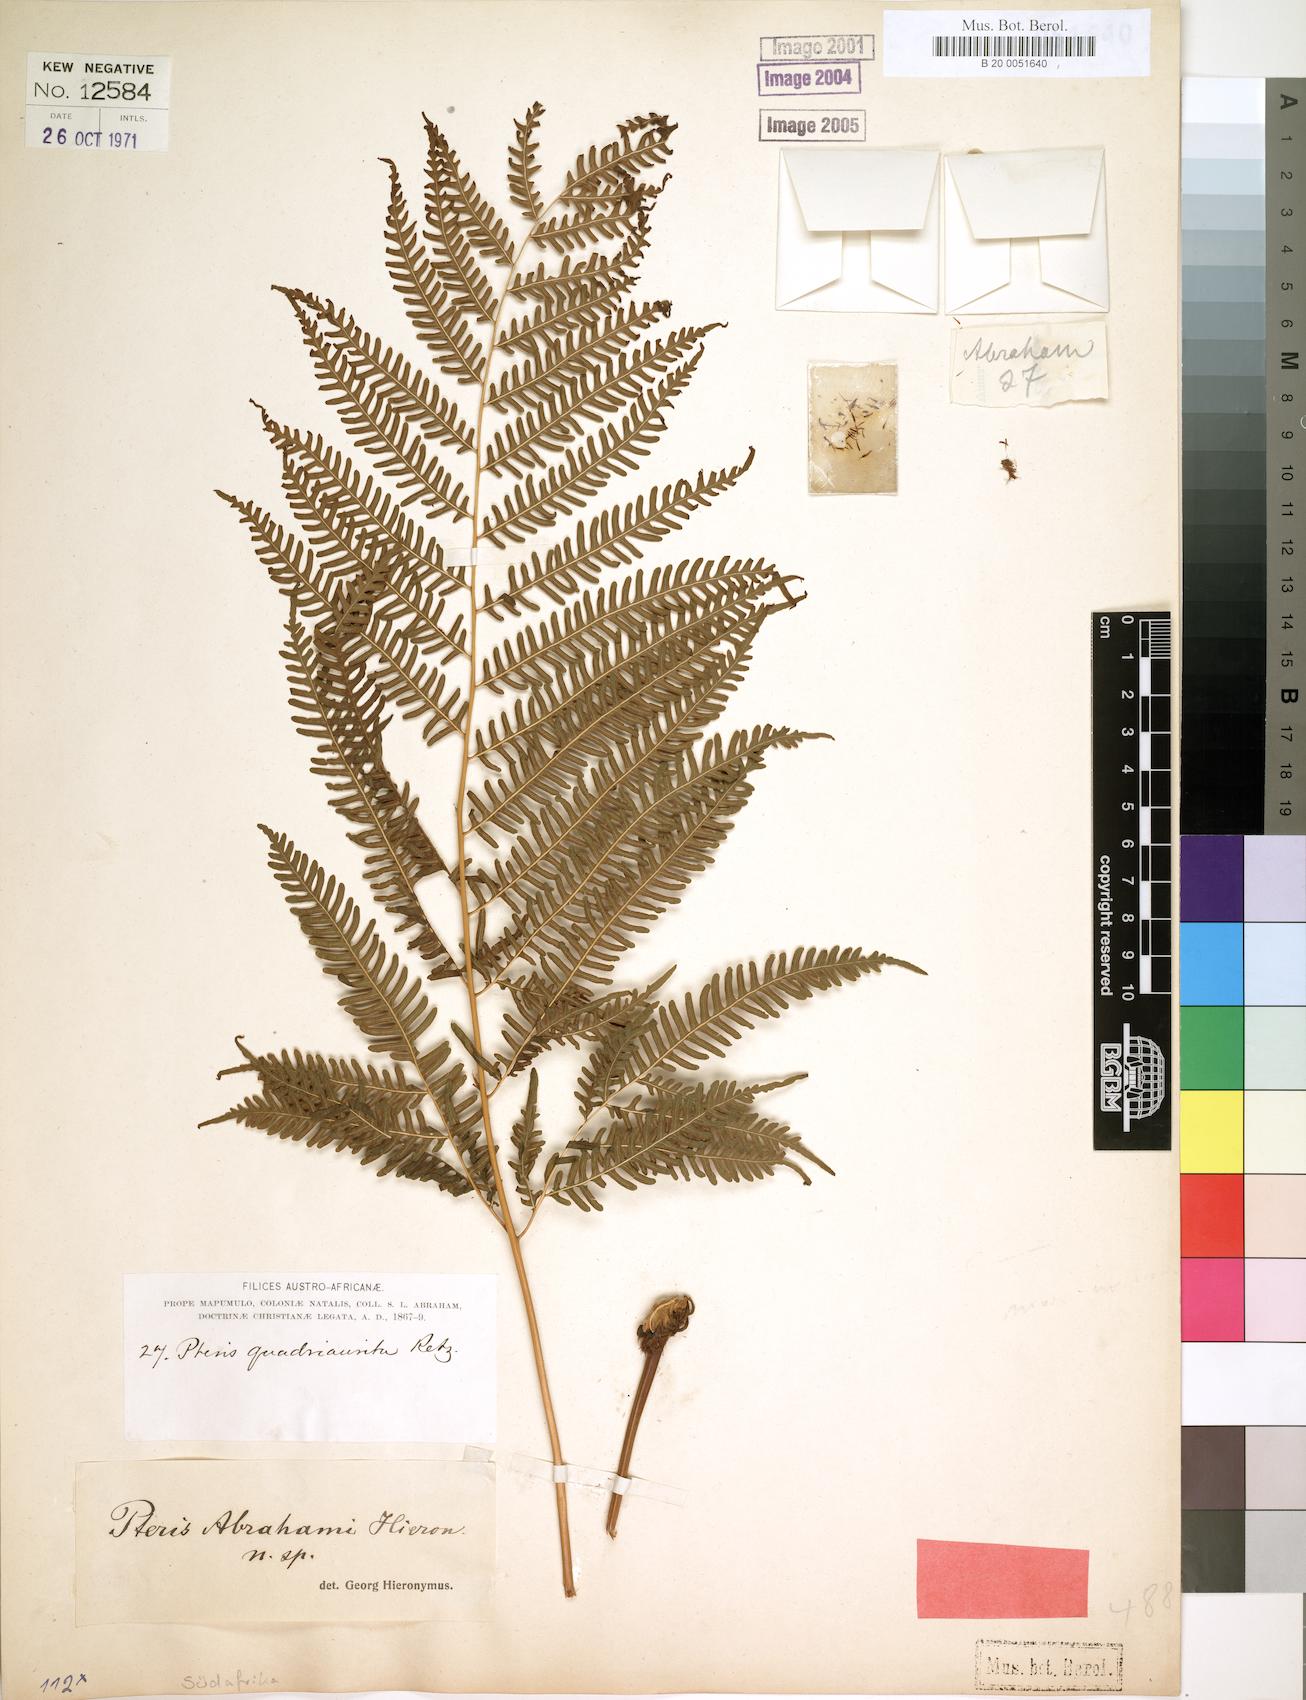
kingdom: Plantae
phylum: Tracheophyta
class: Polypodiopsida
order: Polypodiales
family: Pteridaceae
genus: Pteris
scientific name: Pteris friesii
